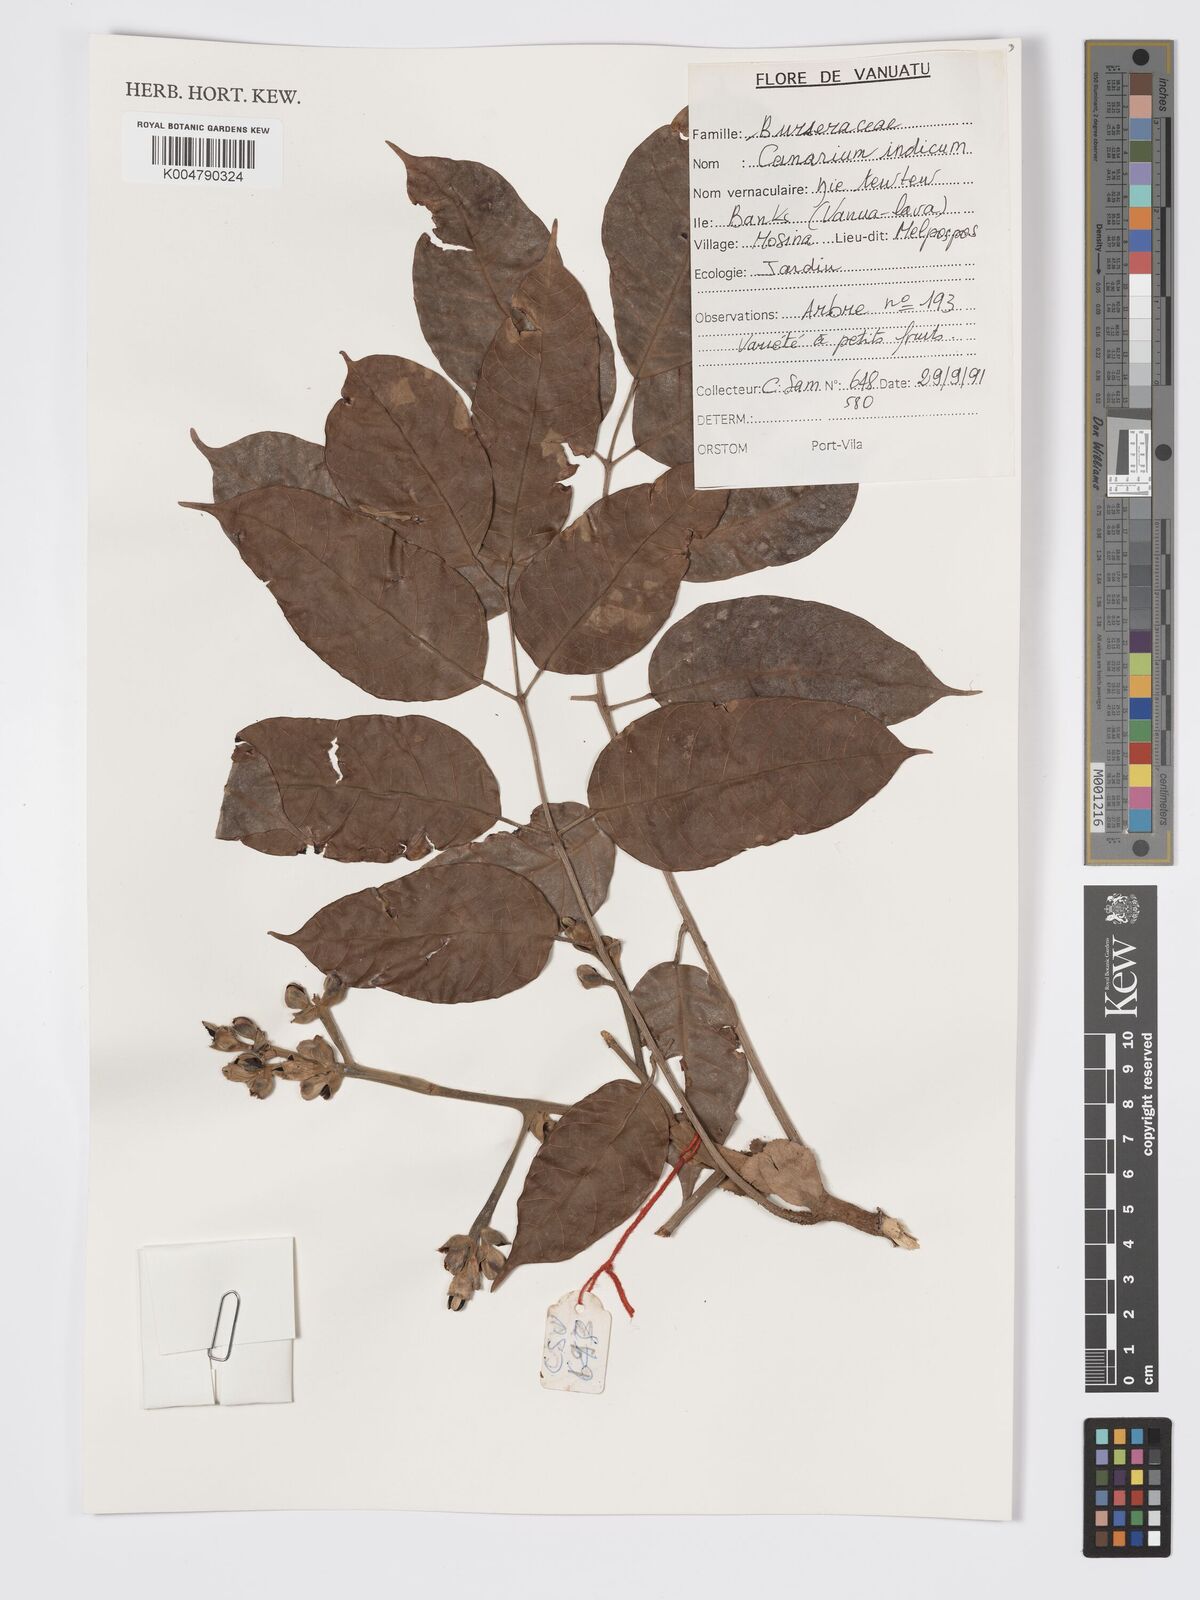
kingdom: Plantae
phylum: Tracheophyta
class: Magnoliopsida
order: Sapindales
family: Burseraceae
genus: Canarium
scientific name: Canarium indicum
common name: Canarium-nut
